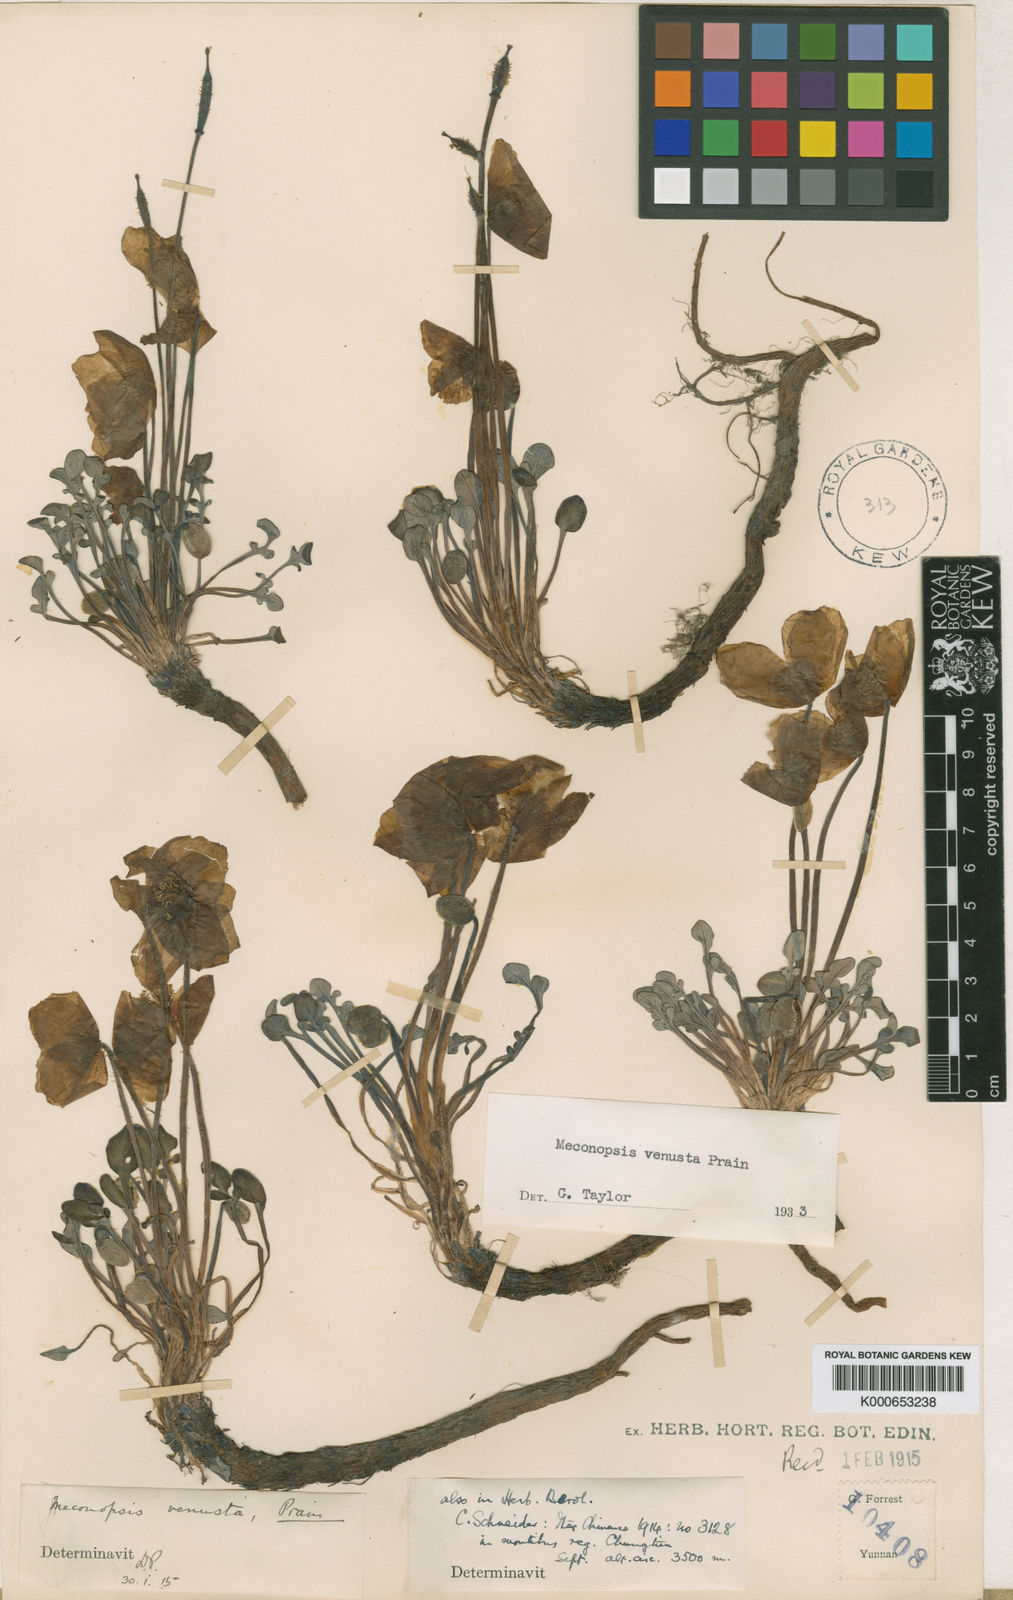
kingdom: Plantae
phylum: Tracheophyta
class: Magnoliopsida
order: Ranunculales
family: Papaveraceae
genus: Meconopsis
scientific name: Meconopsis venusta
